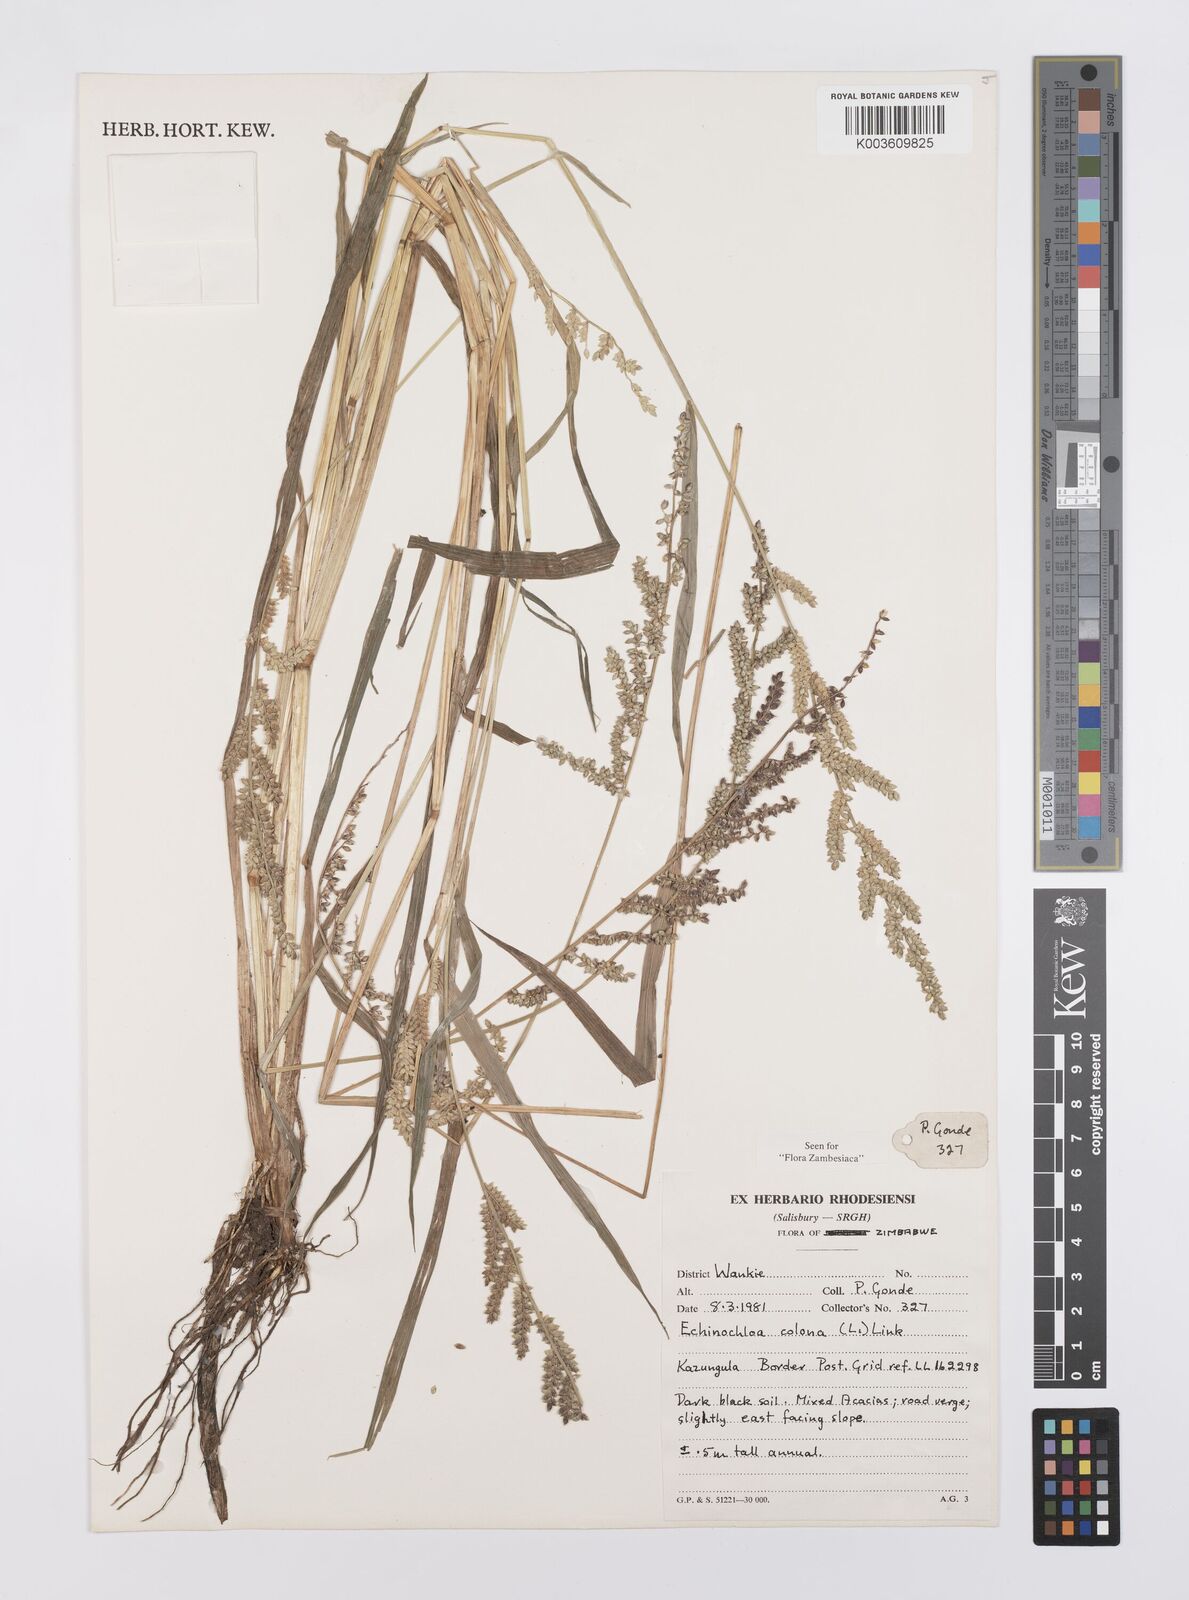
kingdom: Plantae
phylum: Tracheophyta
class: Liliopsida
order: Poales
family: Poaceae
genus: Echinochloa
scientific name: Echinochloa colonum
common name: Jungle rice
